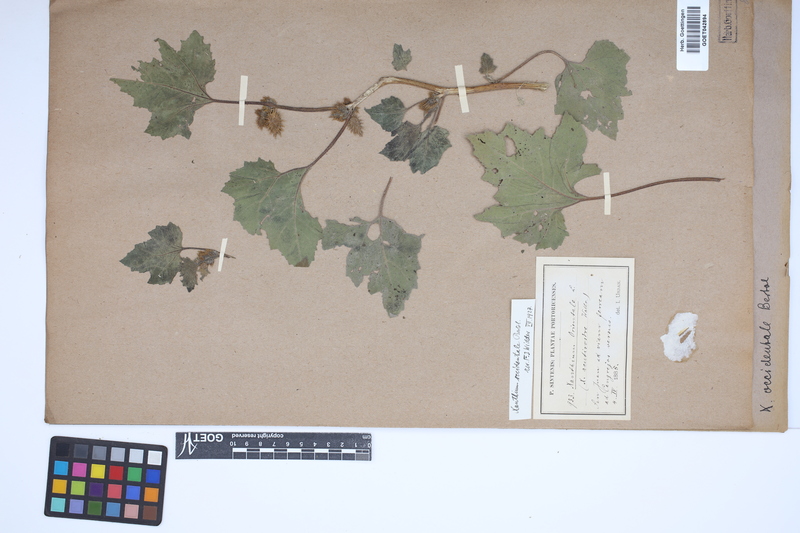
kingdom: Plantae
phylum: Tracheophyta
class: Magnoliopsida
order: Asterales
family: Asteraceae
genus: Xanthium
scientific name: Xanthium occidentale
